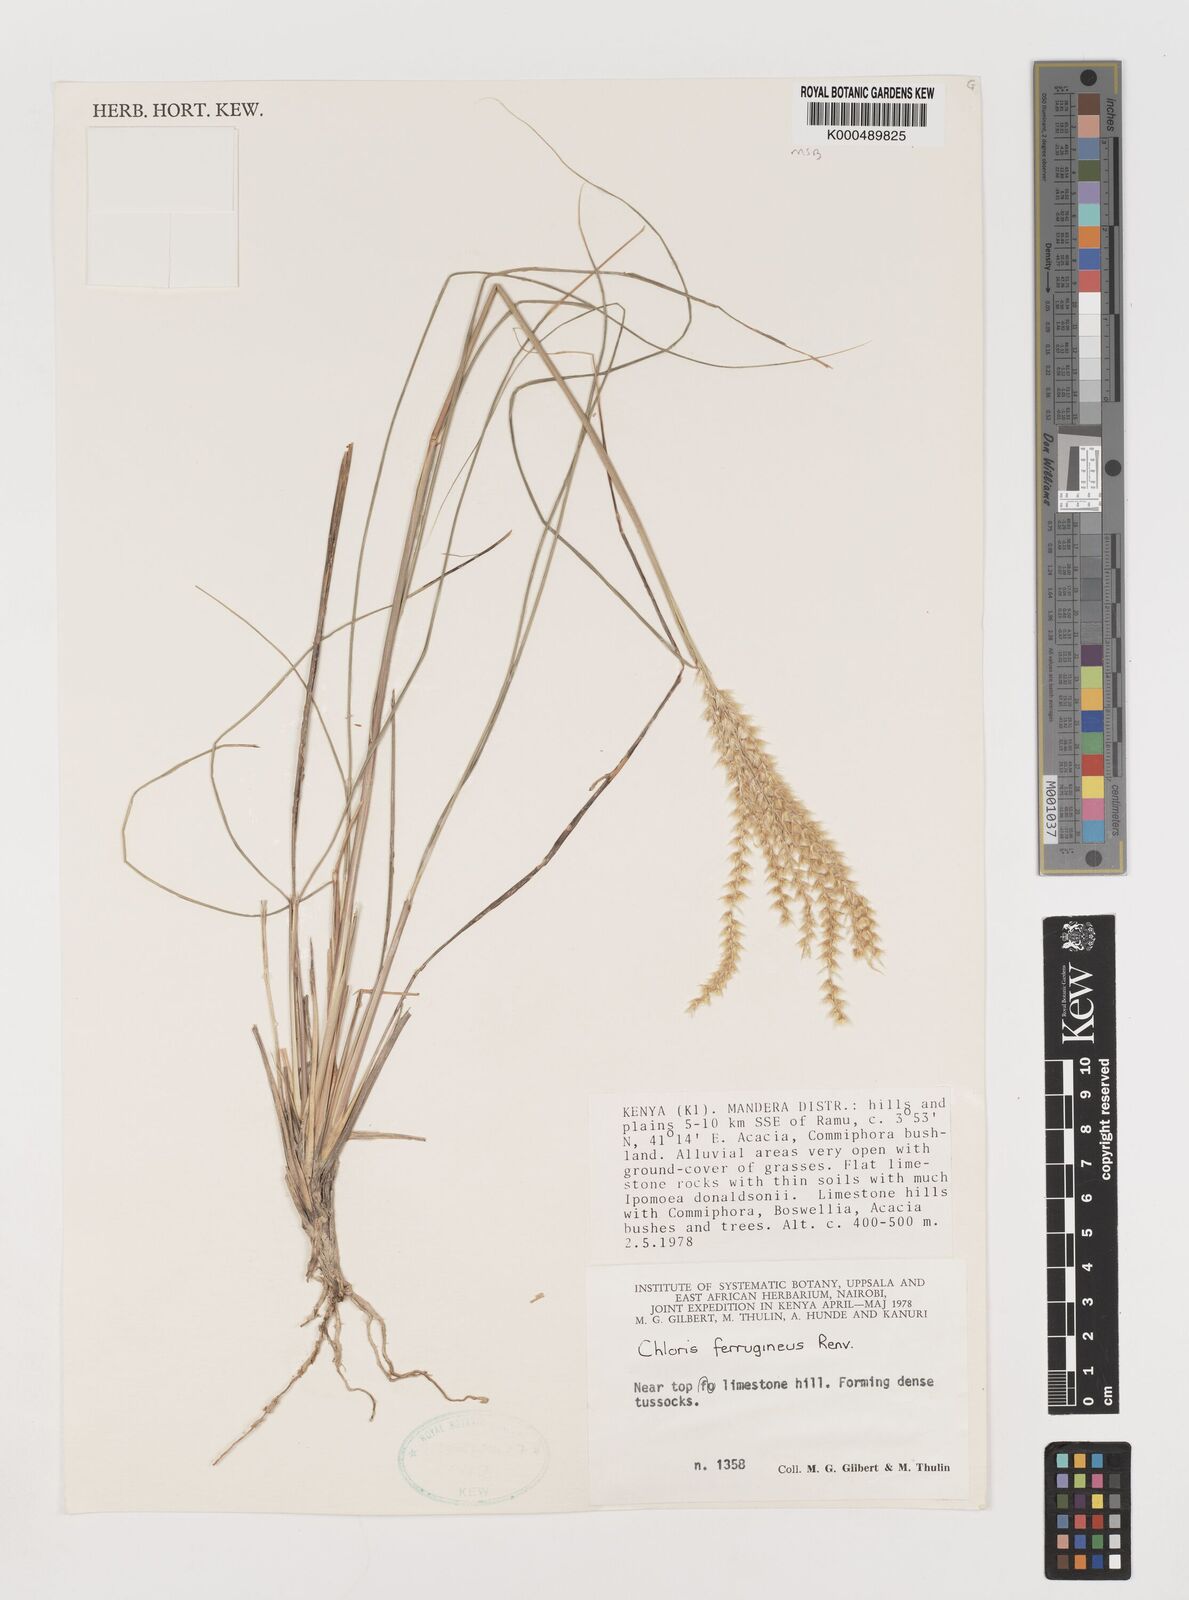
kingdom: Plantae
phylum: Tracheophyta
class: Liliopsida
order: Poales
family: Poaceae
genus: Tetrapogon
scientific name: Tetrapogon ferrugineus
